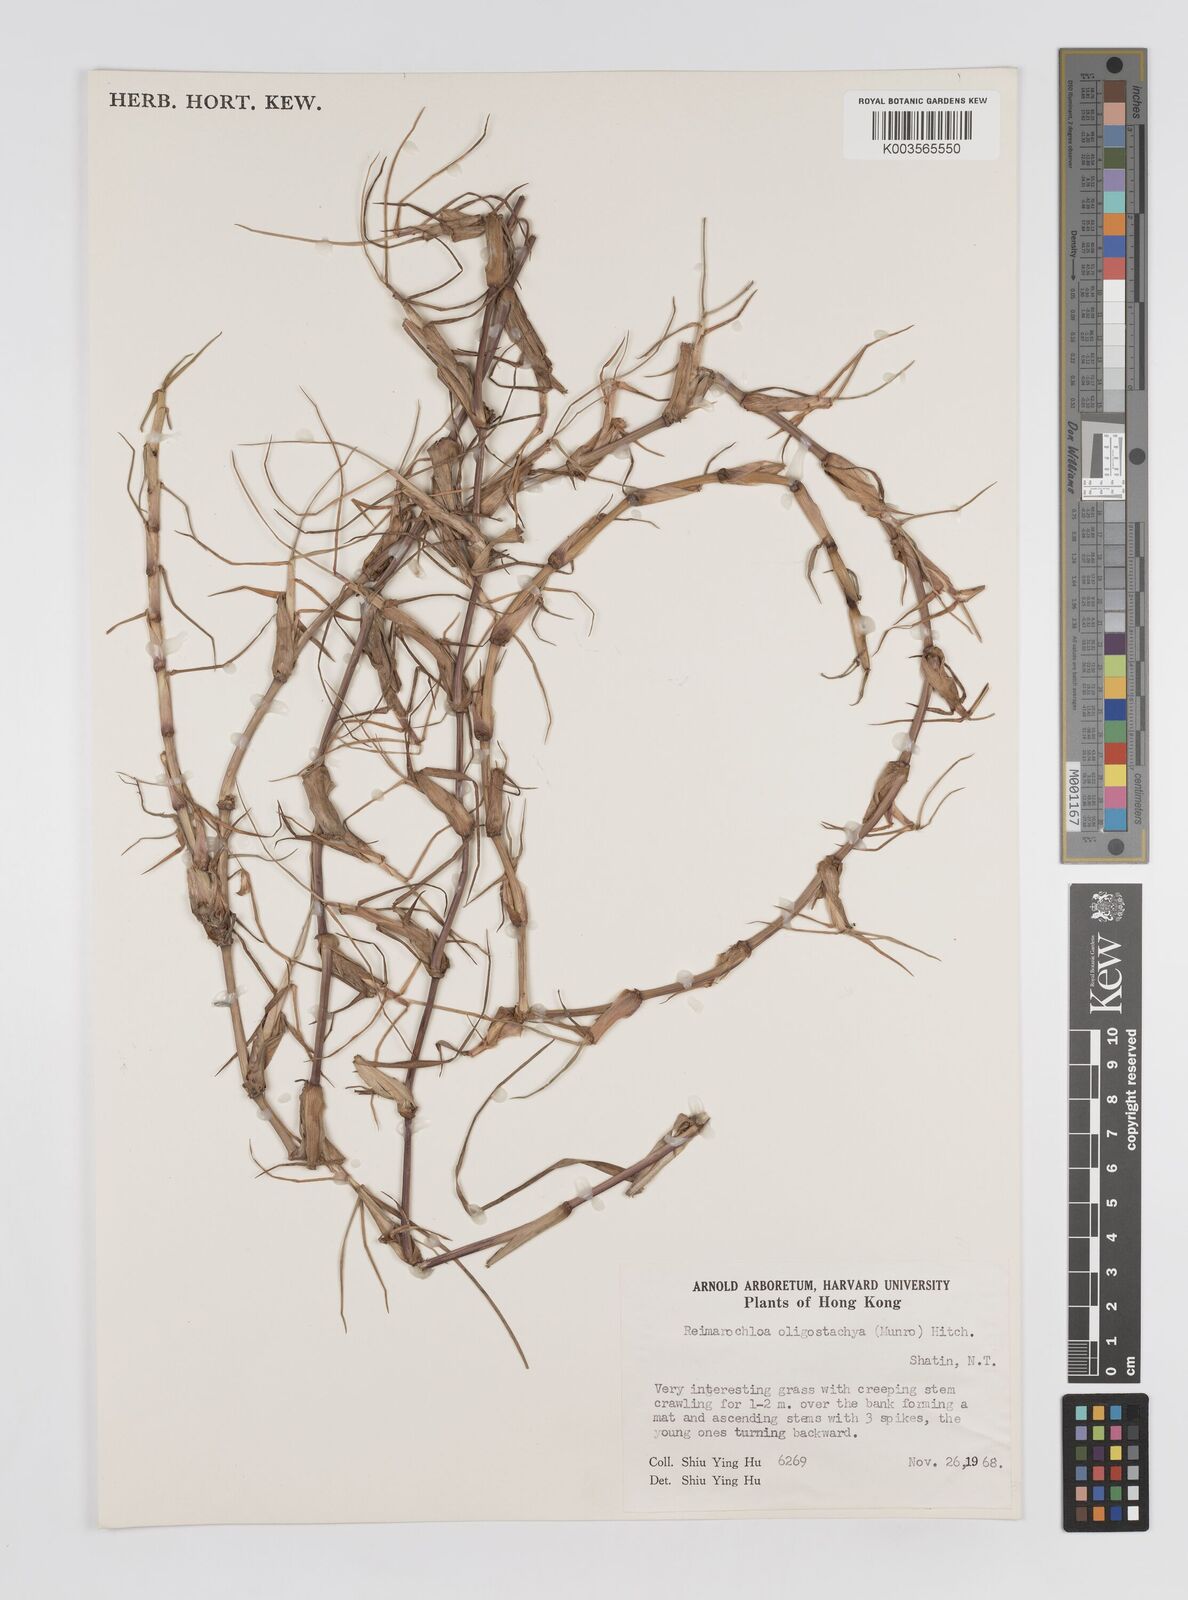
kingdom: Plantae
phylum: Tracheophyta
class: Liliopsida
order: Poales
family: Poaceae
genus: Paspalum
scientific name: Paspalum eglume
